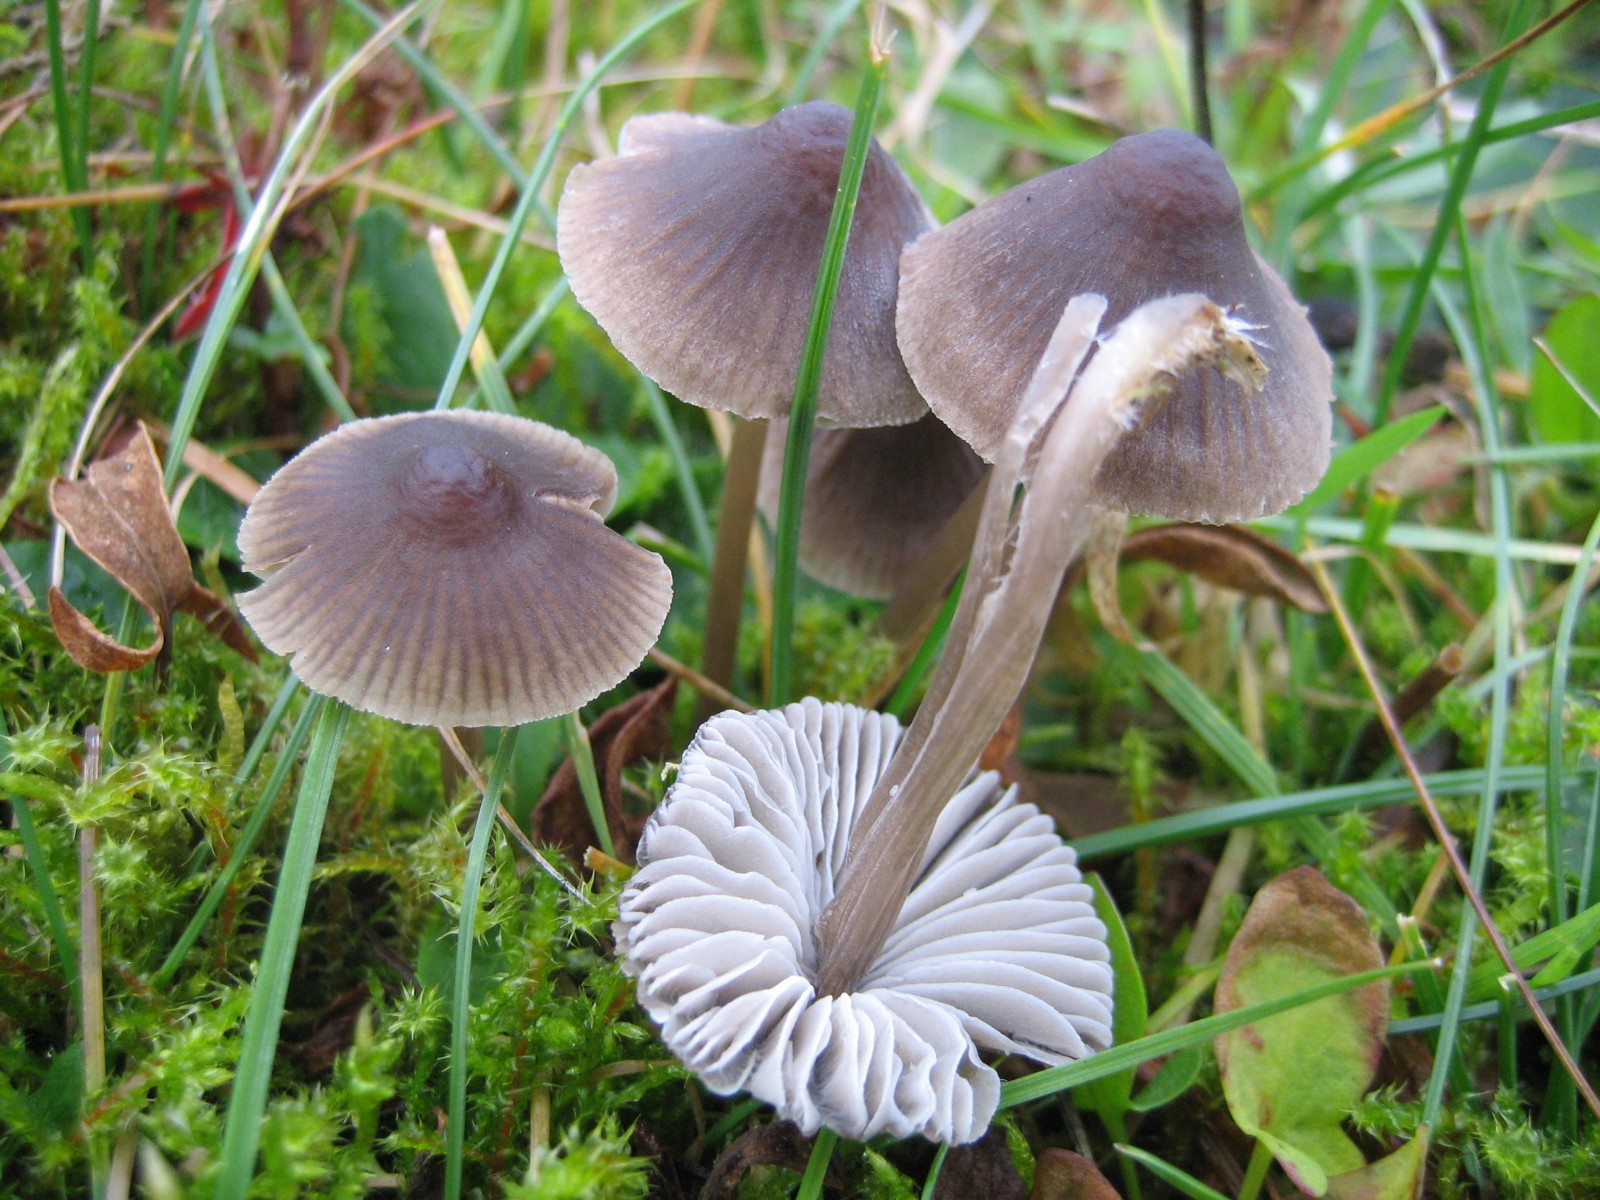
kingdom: Fungi
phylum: Basidiomycota
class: Agaricomycetes
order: Agaricales
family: Mycenaceae
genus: Mycena
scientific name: Mycena leptocephala
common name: klor-huesvamp
